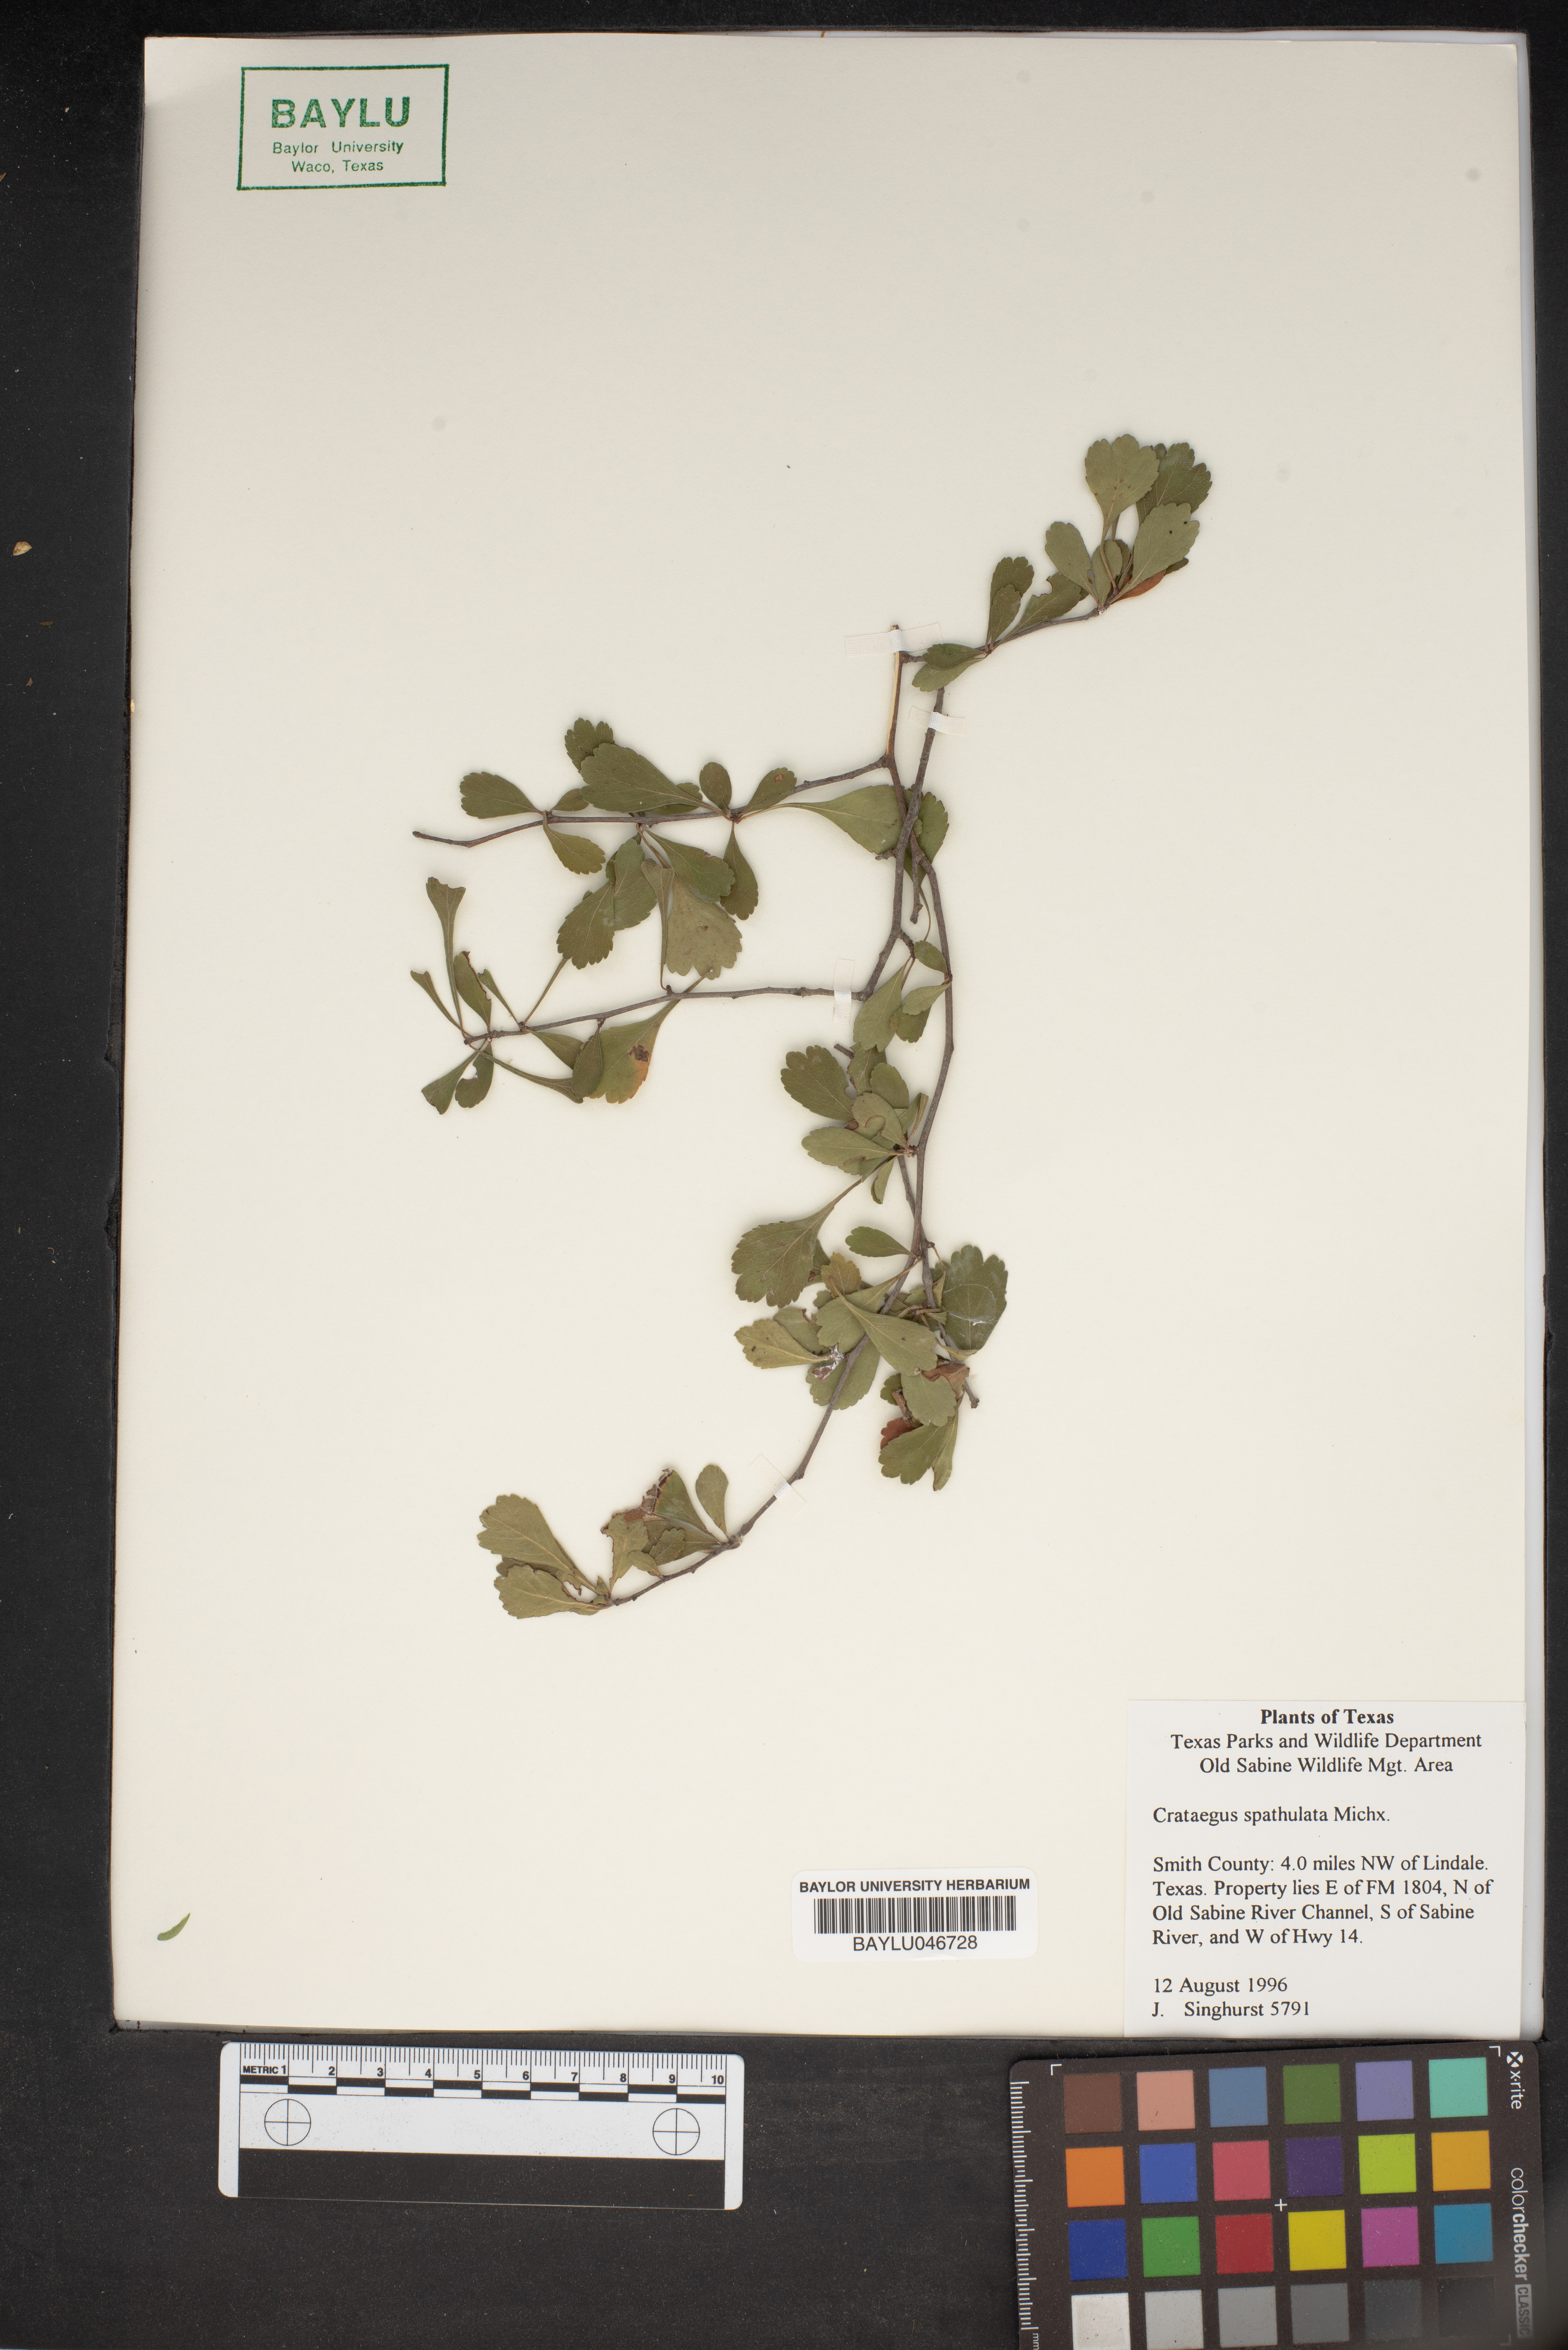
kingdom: Plantae
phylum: Tracheophyta
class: Magnoliopsida
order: Rosales
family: Rosaceae
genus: Crataegus
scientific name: Crataegus spathulata
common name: Littlehip hawthorn
